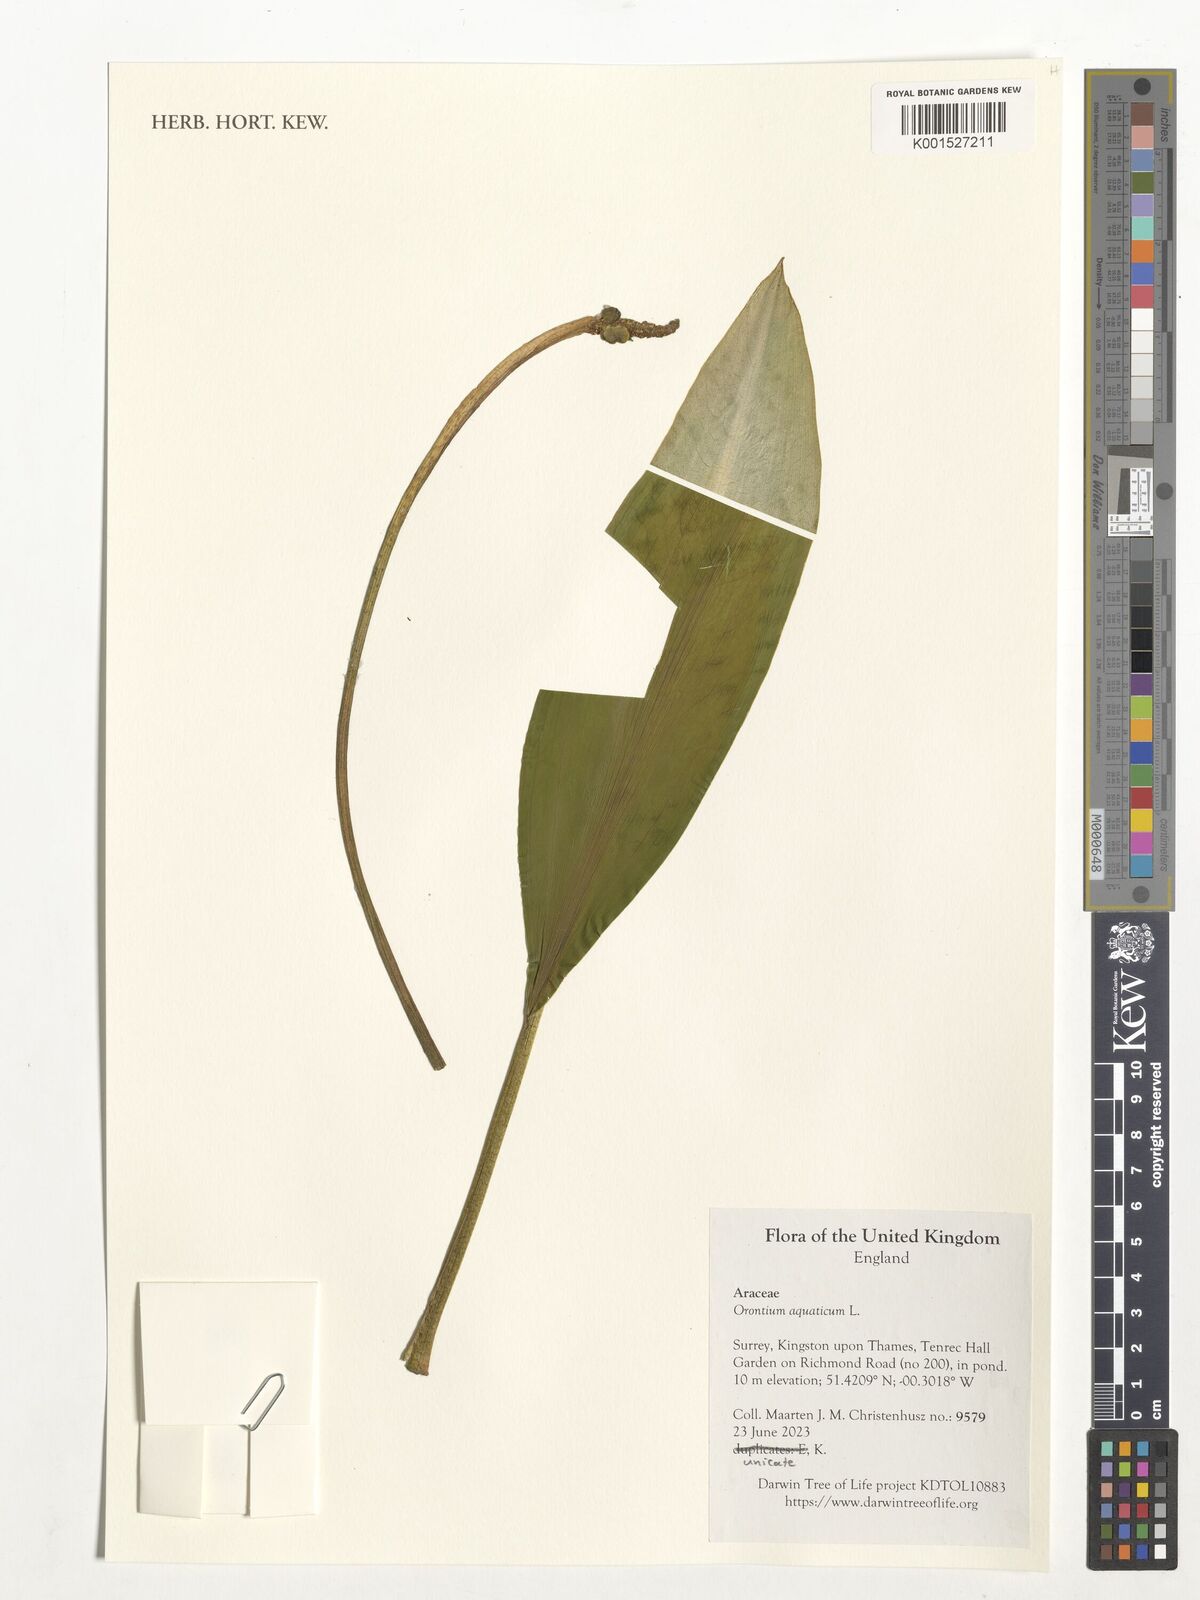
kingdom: Plantae
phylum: Tracheophyta
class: Liliopsida
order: Alismatales
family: Araceae
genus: Orontium
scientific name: Orontium aquaticum
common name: Golden-club
